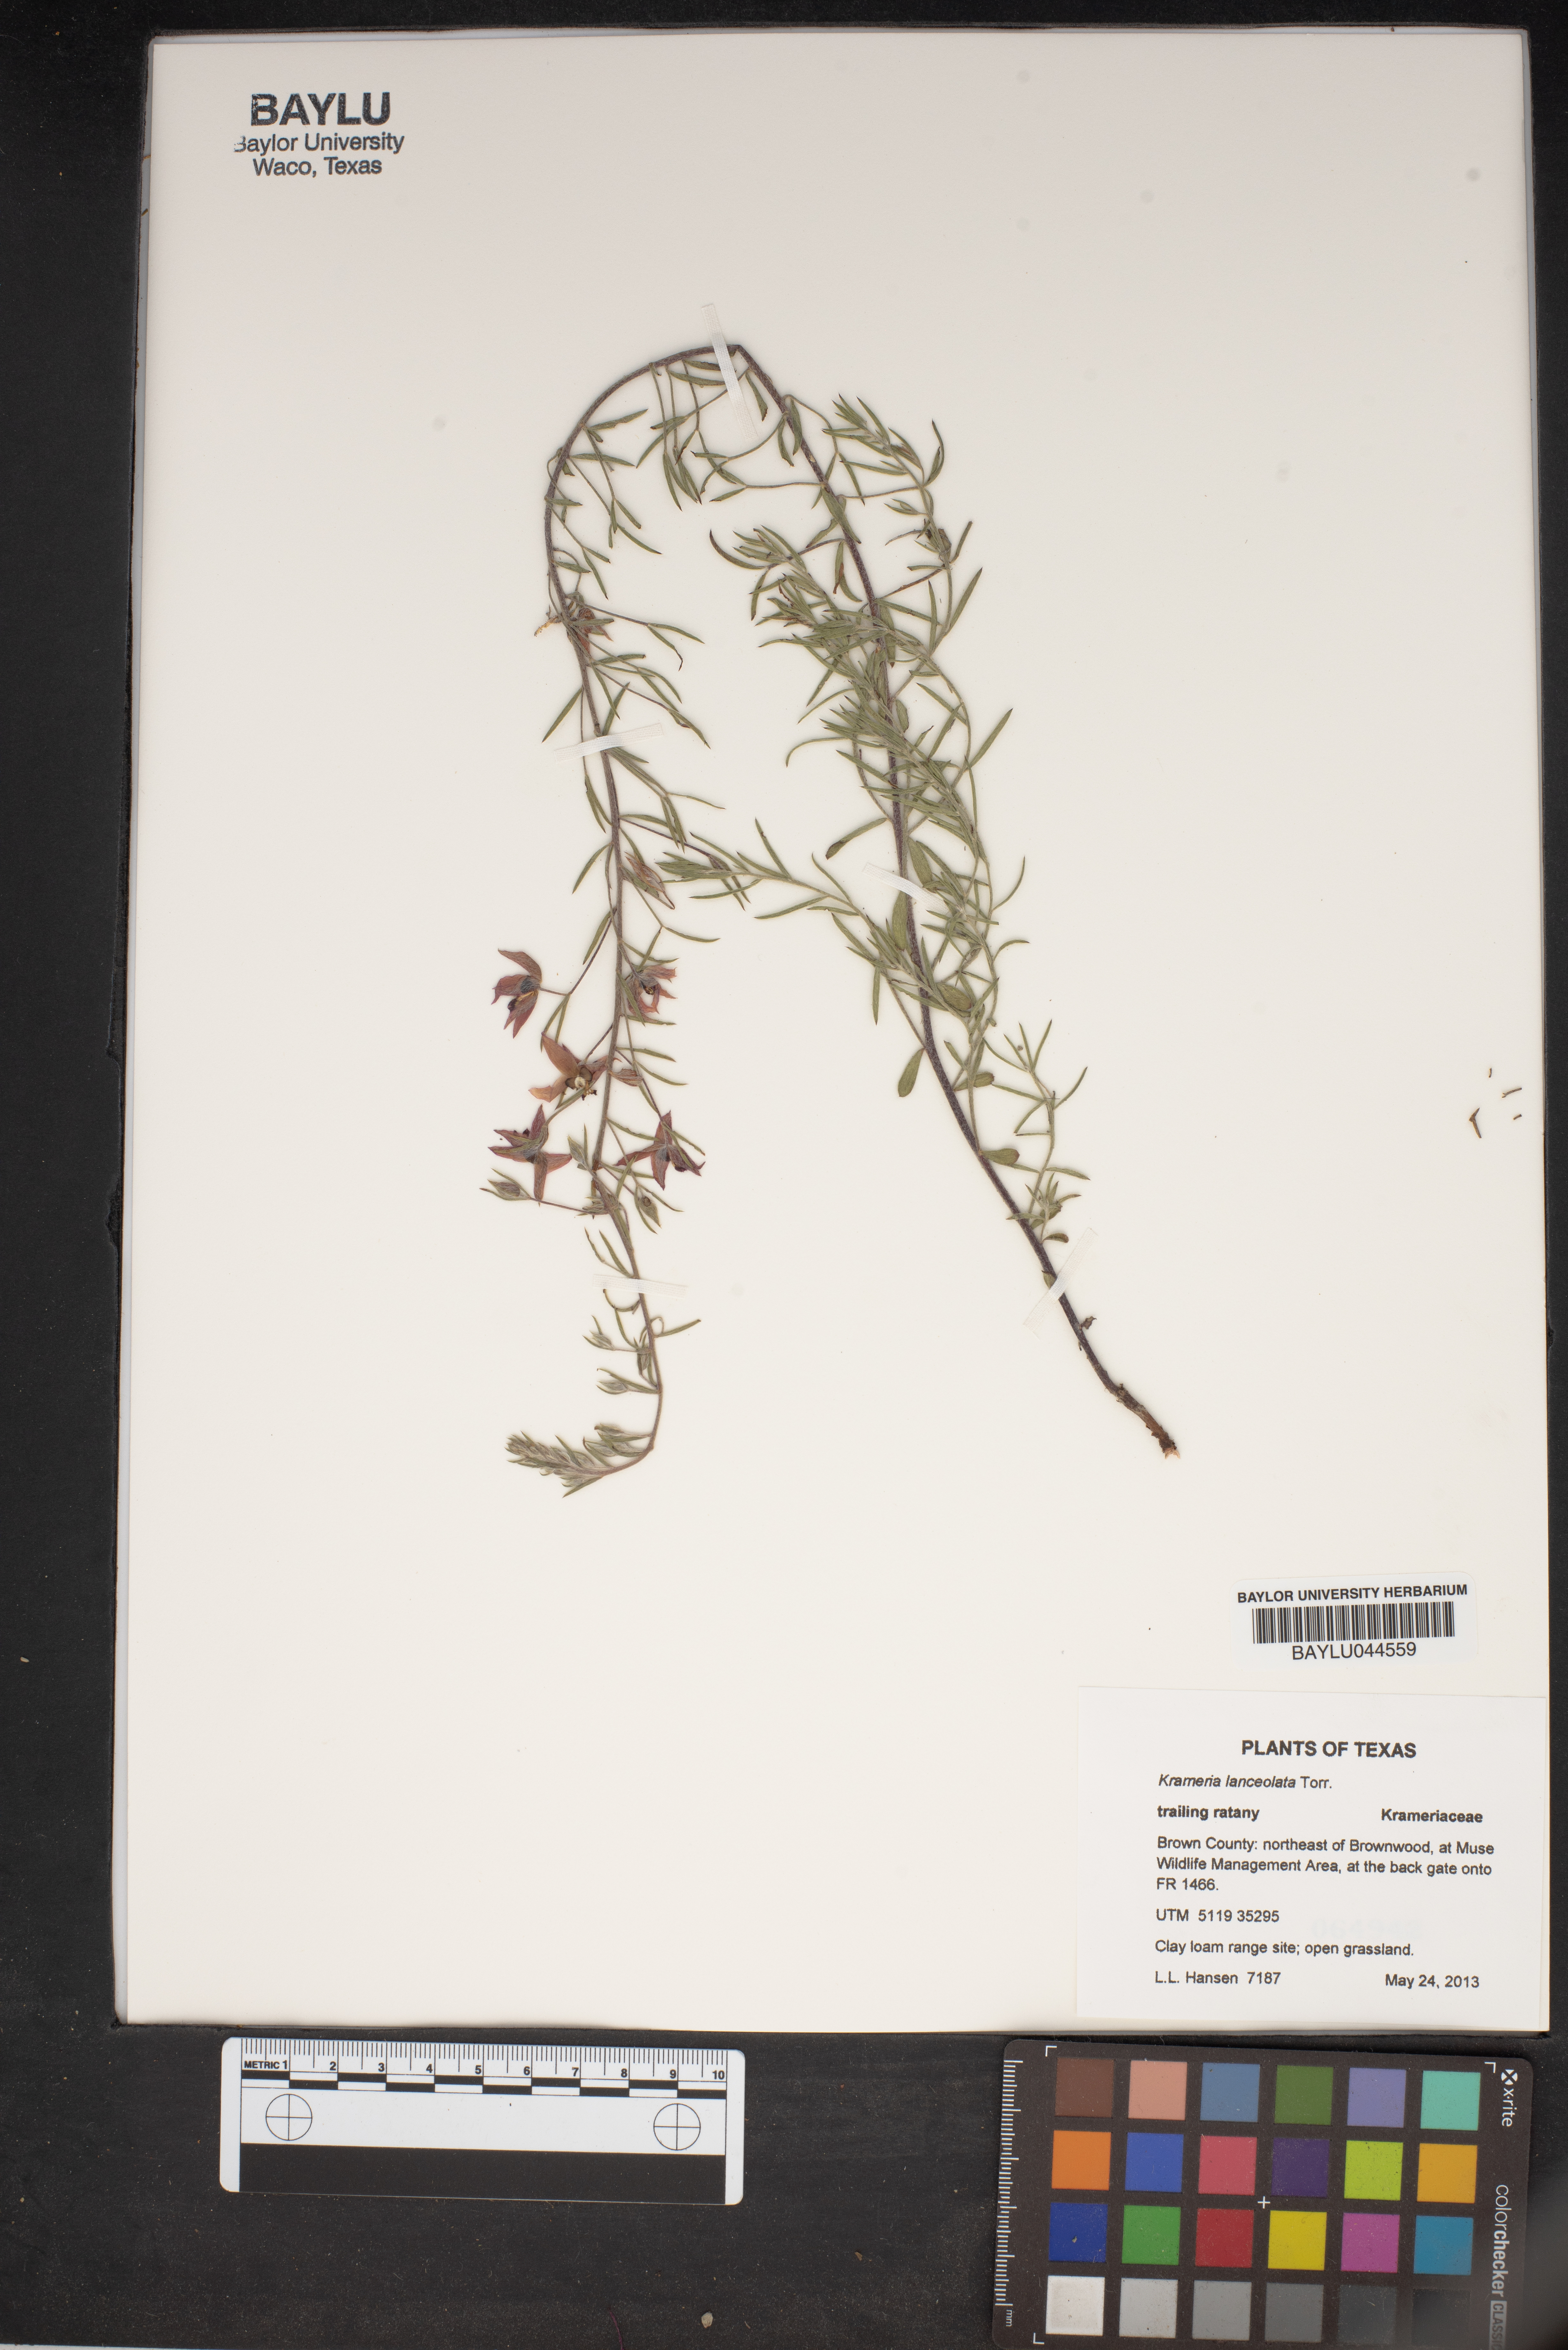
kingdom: Plantae
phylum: Tracheophyta
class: Magnoliopsida
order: Zygophyllales
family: Krameriaceae
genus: Krameria
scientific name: Krameria lanceolata
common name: Ratany
